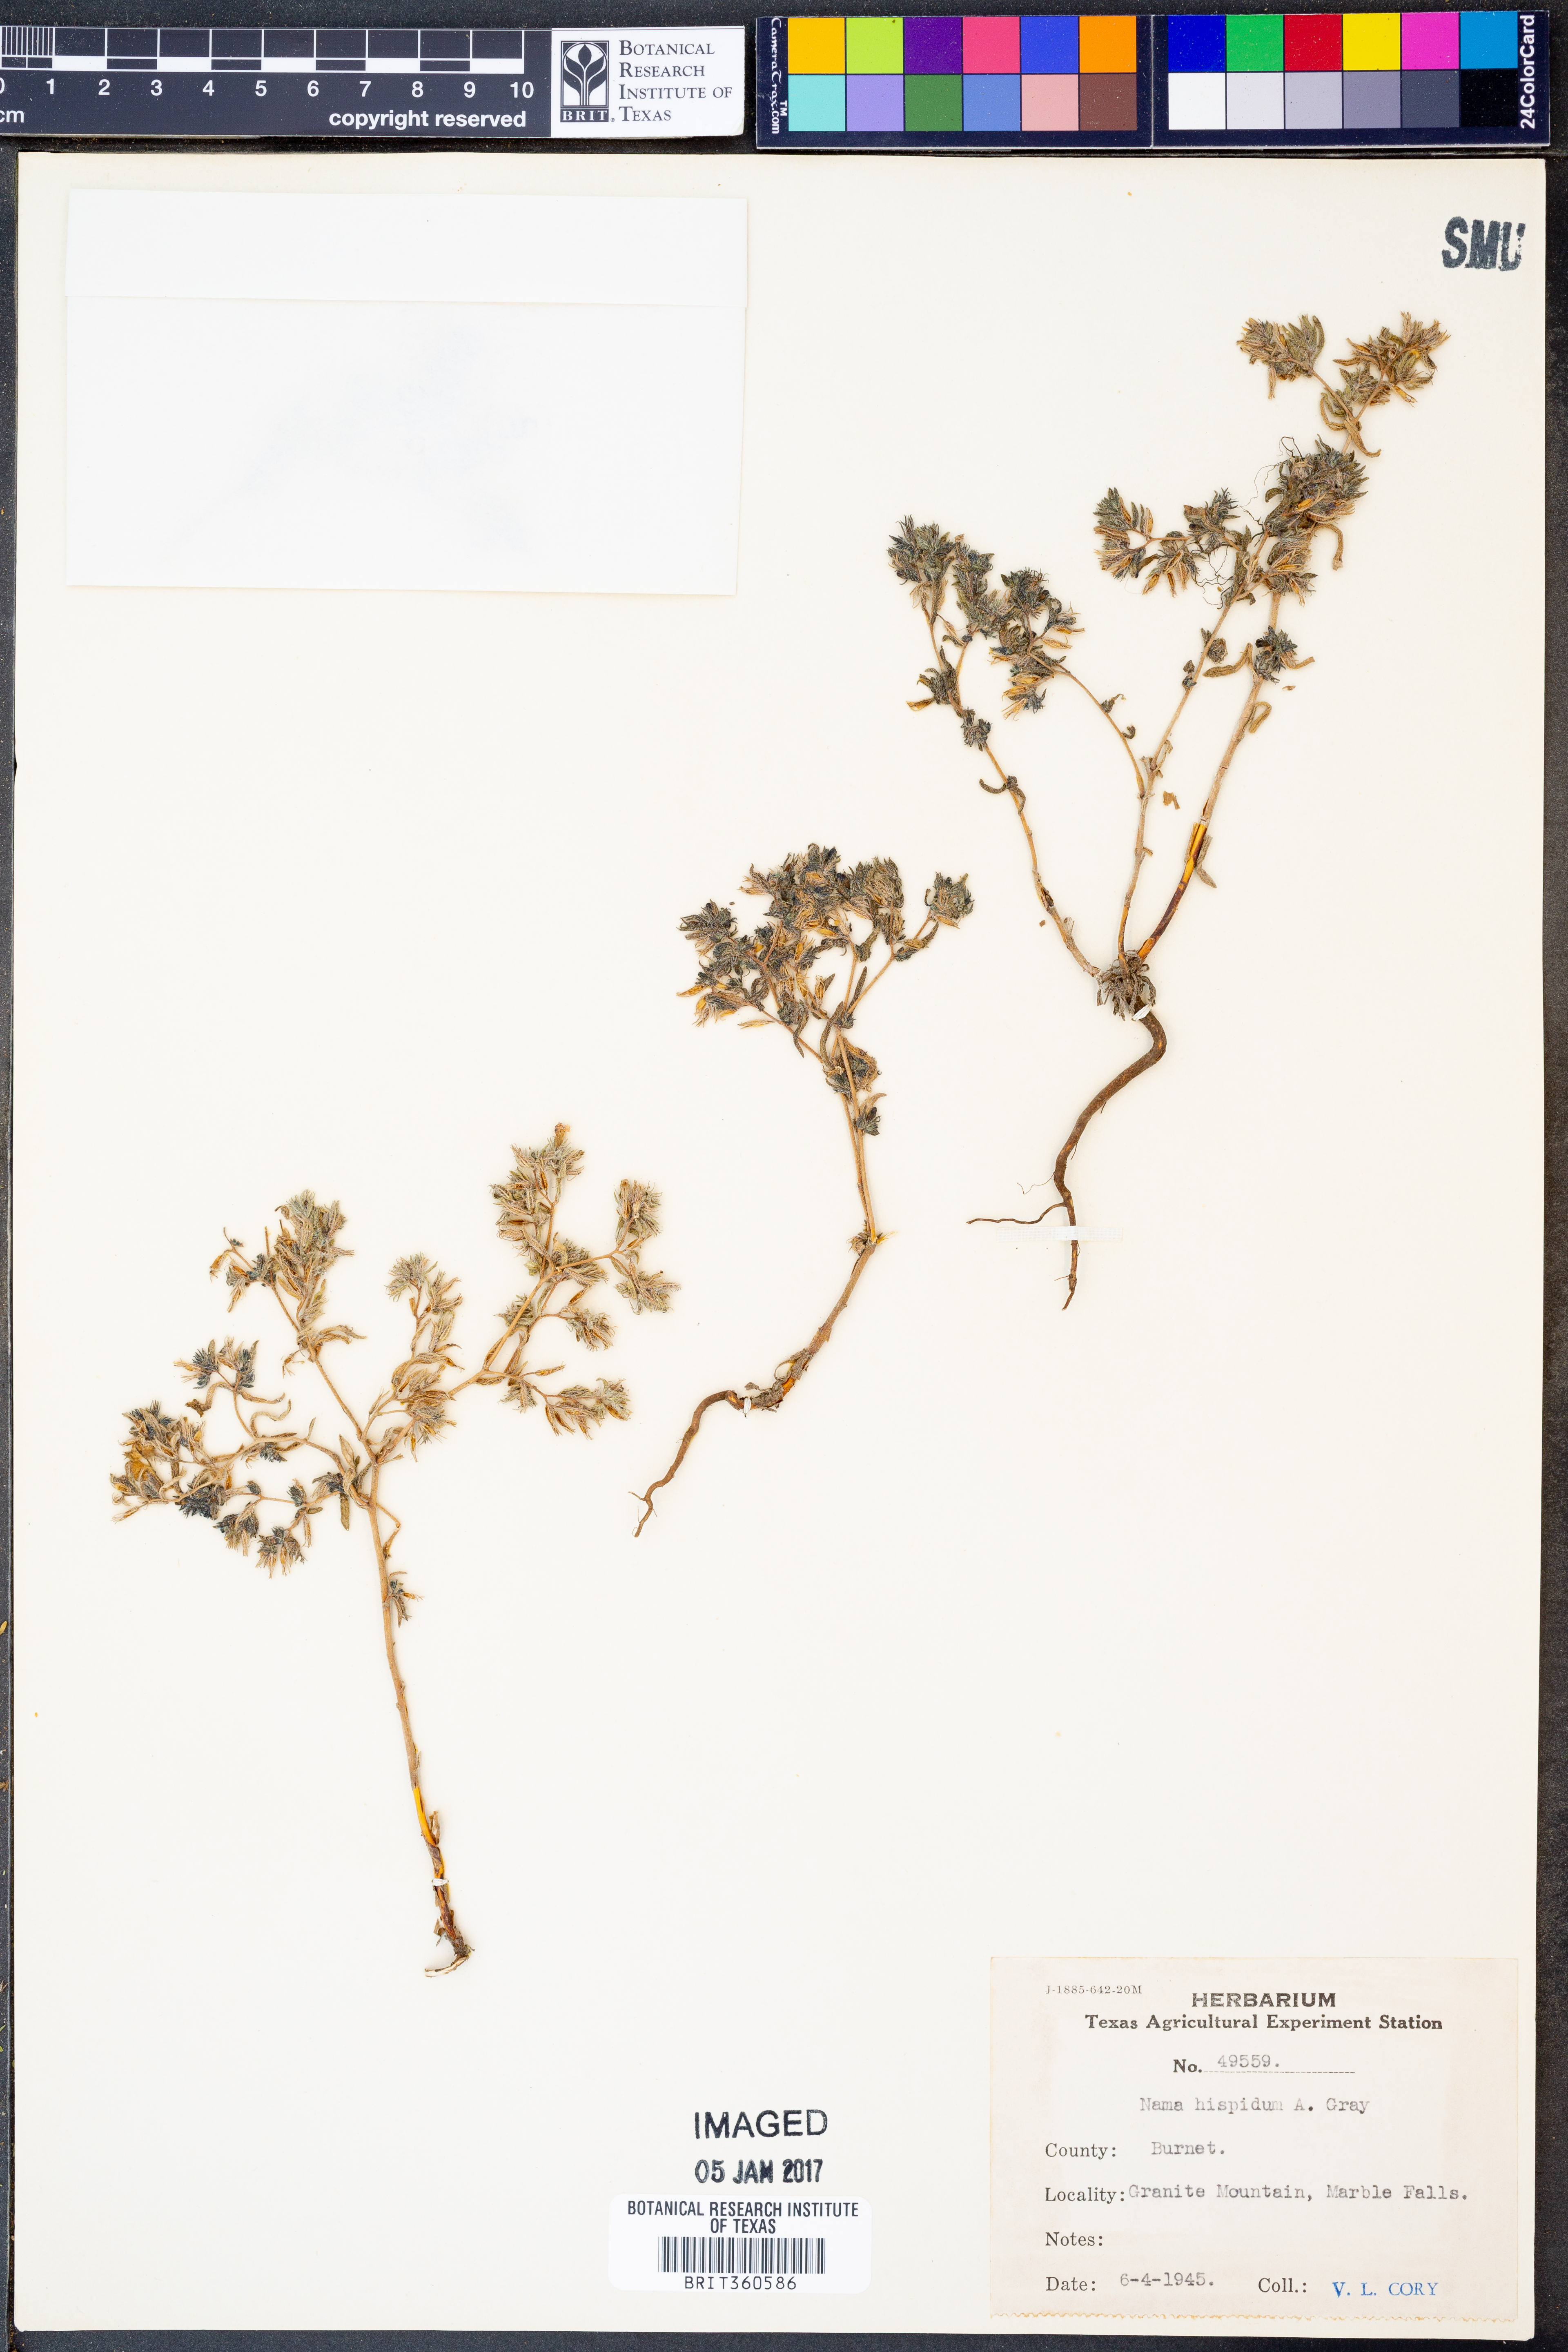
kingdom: Plantae
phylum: Tracheophyta
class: Magnoliopsida
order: Boraginales
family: Namaceae
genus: Nama
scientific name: Nama hispida
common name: Bristly nama
